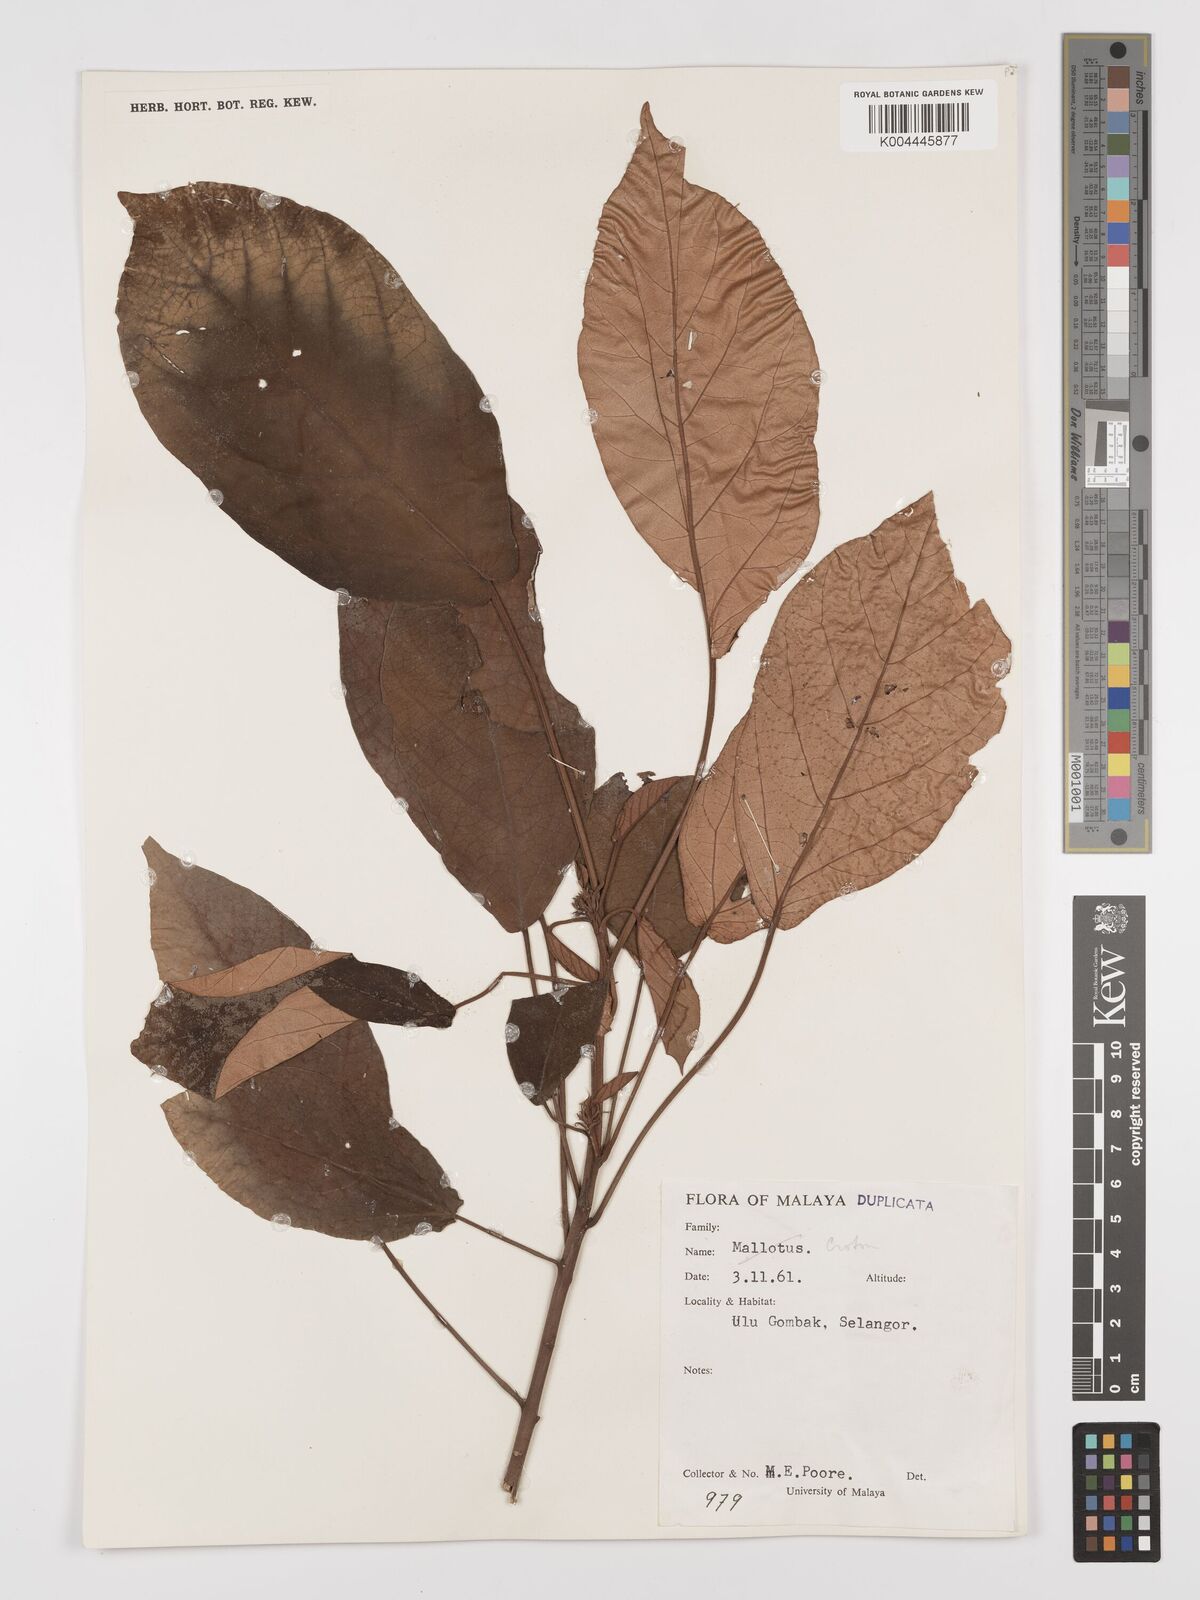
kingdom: Plantae
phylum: Tracheophyta
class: Magnoliopsida
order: Malpighiales
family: Euphorbiaceae
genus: Croton
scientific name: Croton argyratus
